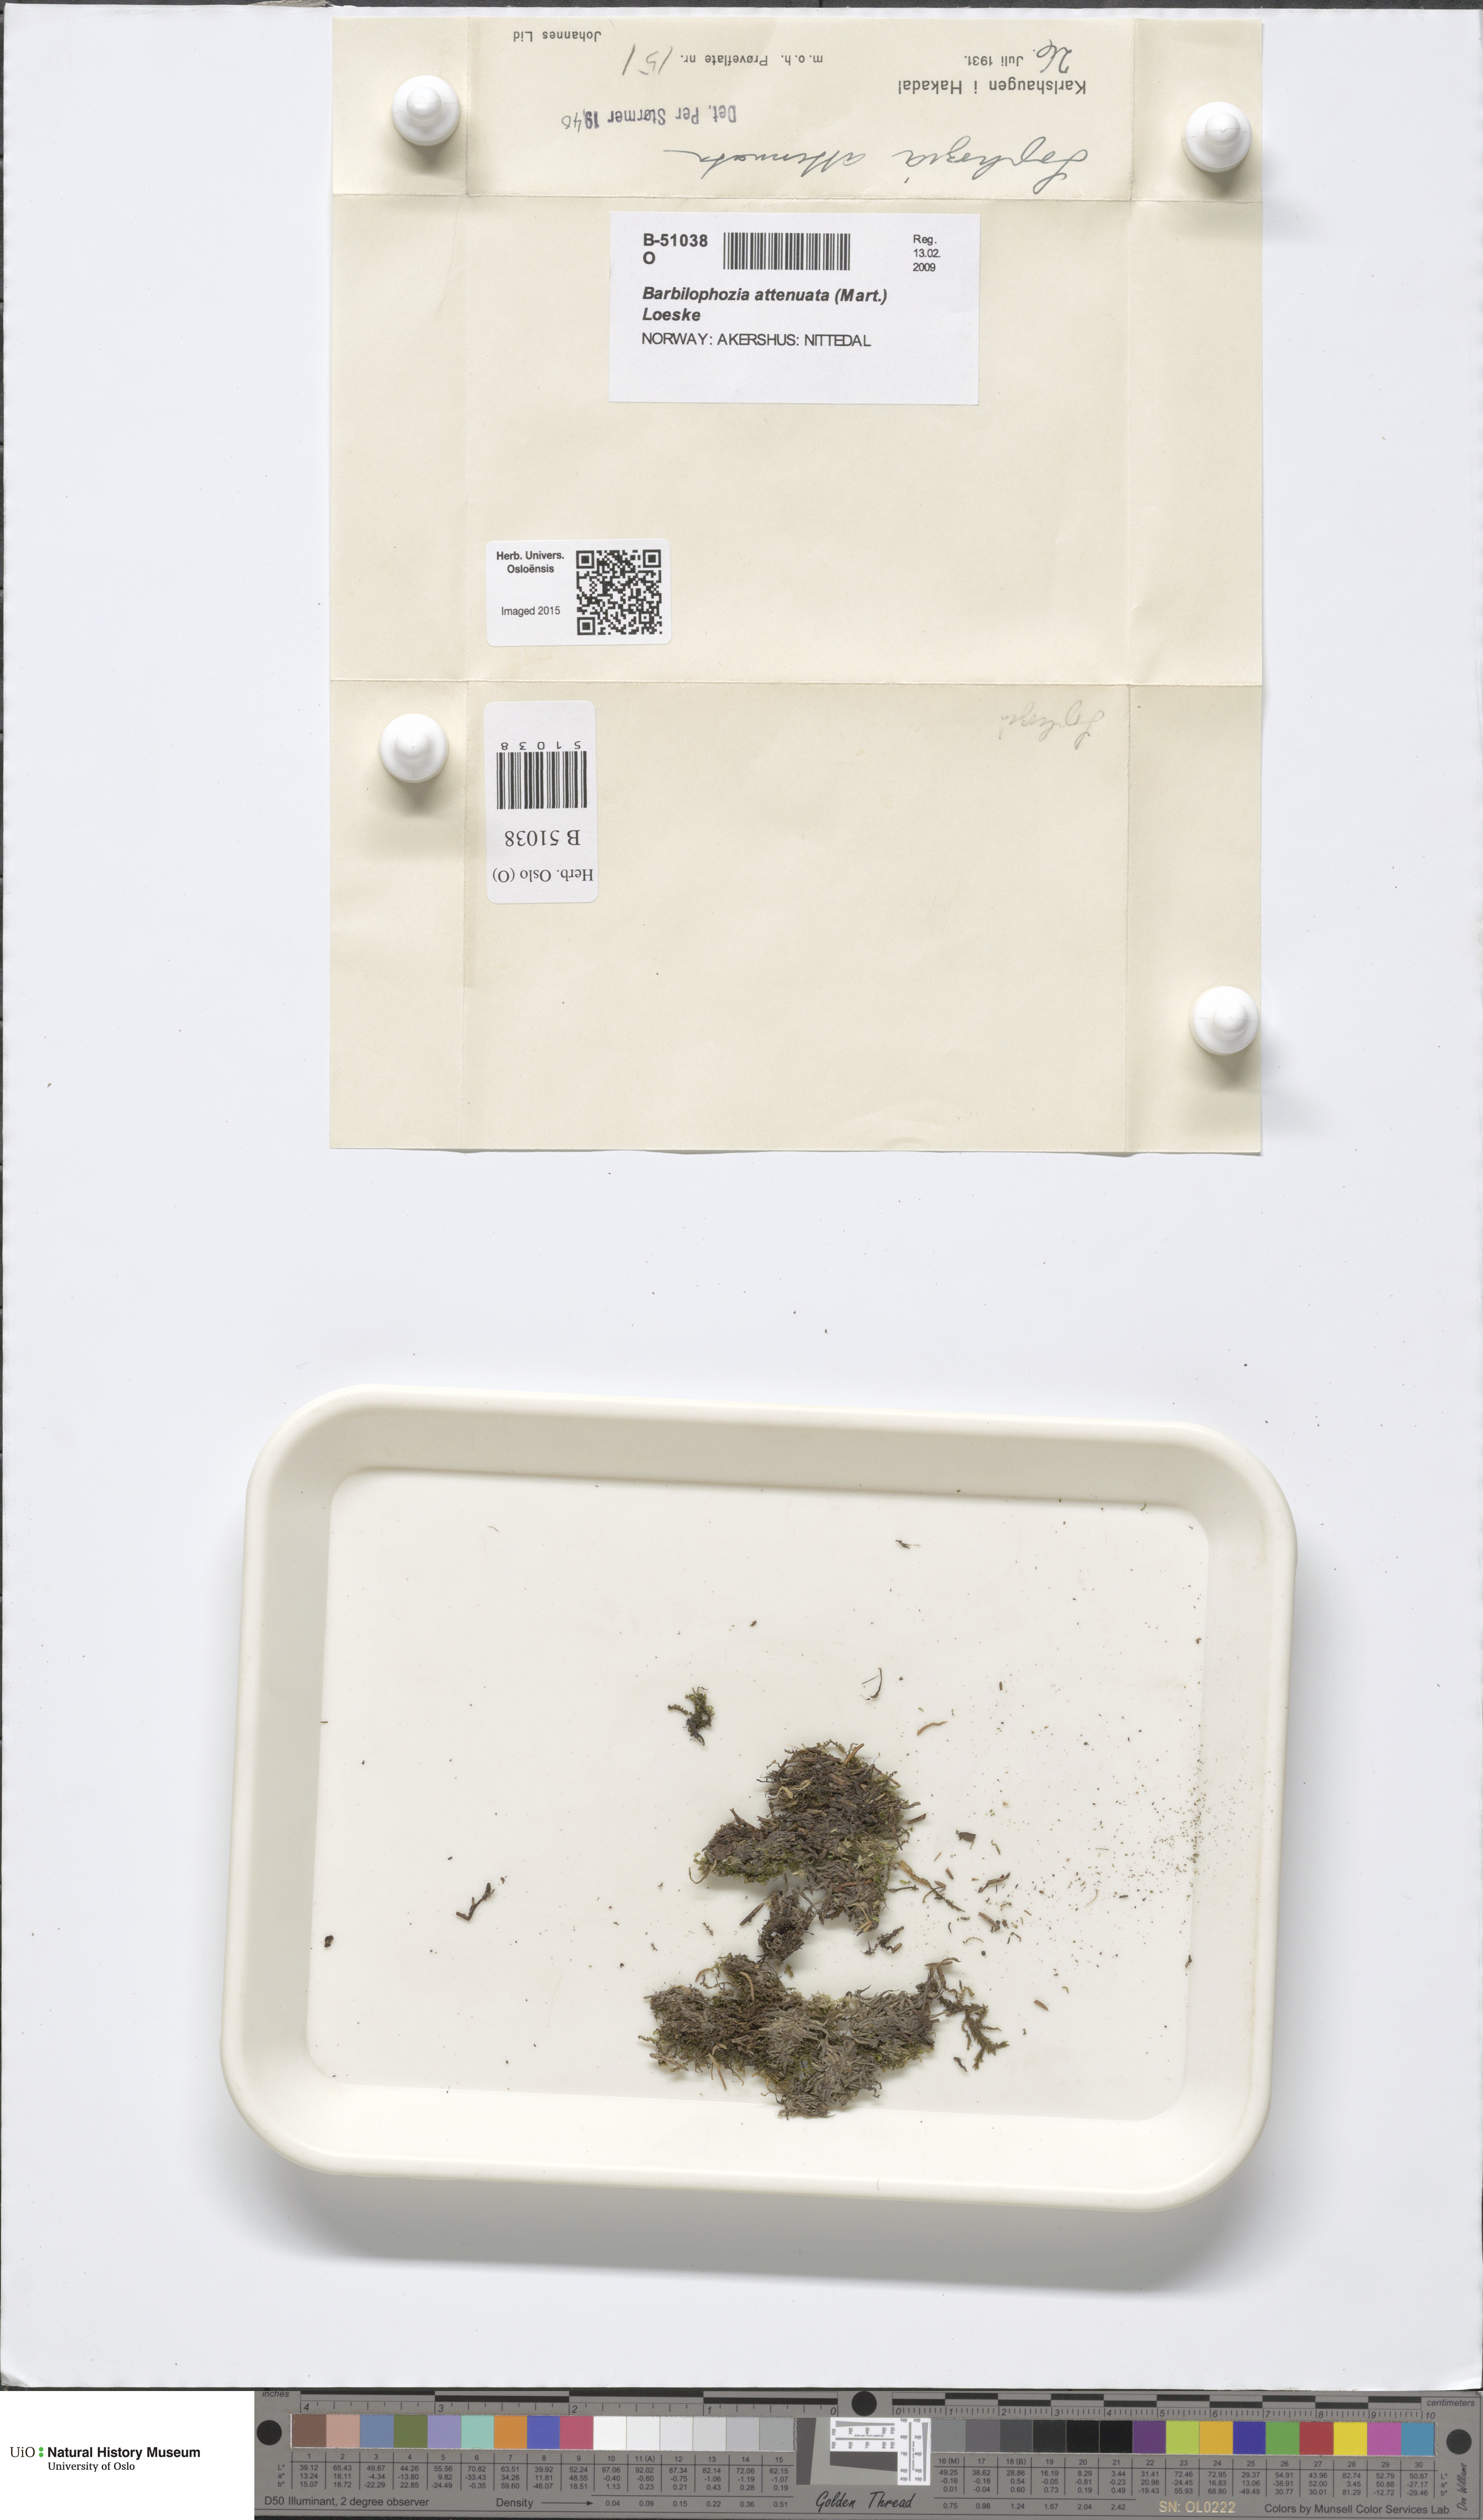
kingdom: Plantae
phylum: Marchantiophyta
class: Jungermanniopsida
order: Jungermanniales
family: Anastrophyllaceae
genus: Neoorthocaulis
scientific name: Neoorthocaulis attenuatus
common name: Trunk pawwort
